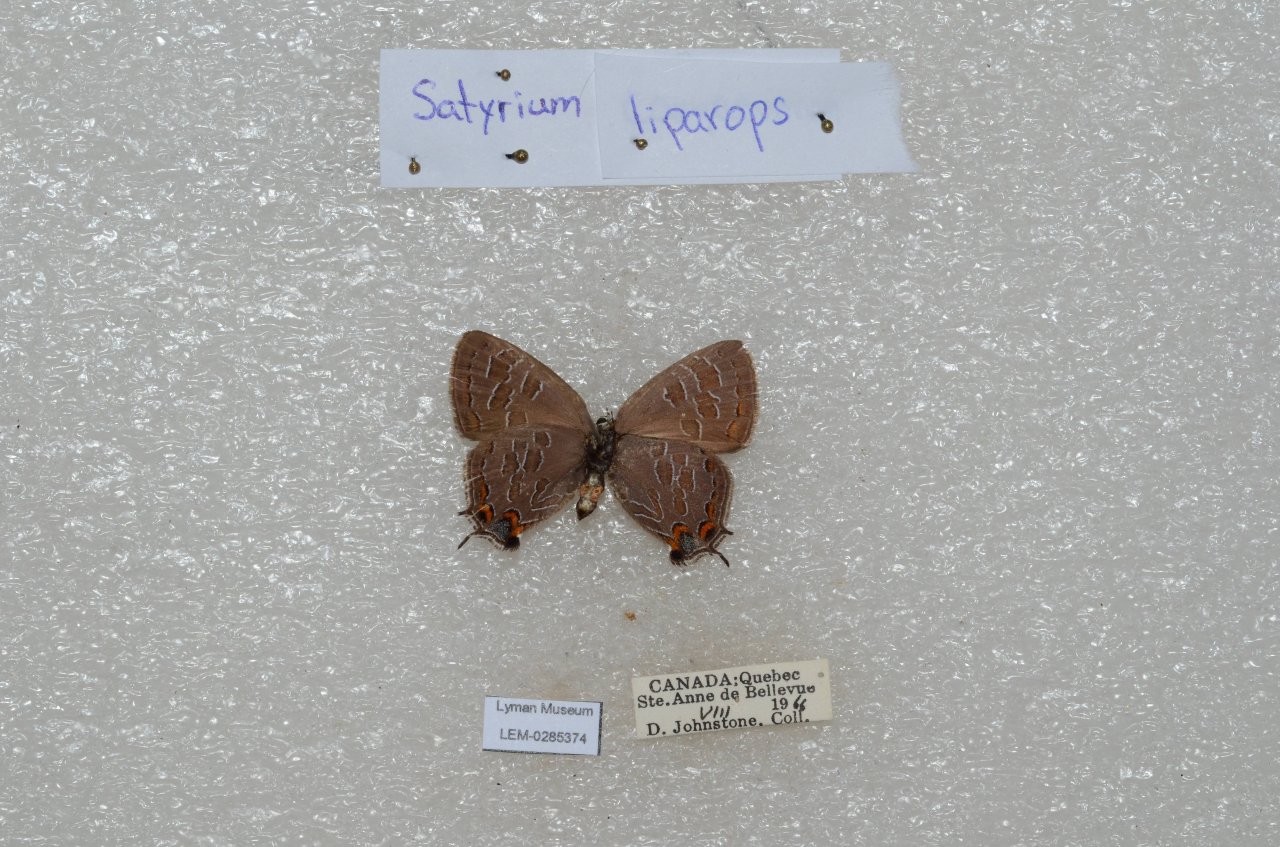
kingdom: Animalia
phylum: Arthropoda
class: Insecta
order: Lepidoptera
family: Lycaenidae
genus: Satyrium
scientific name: Satyrium liparops
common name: Striped Hairstreak
